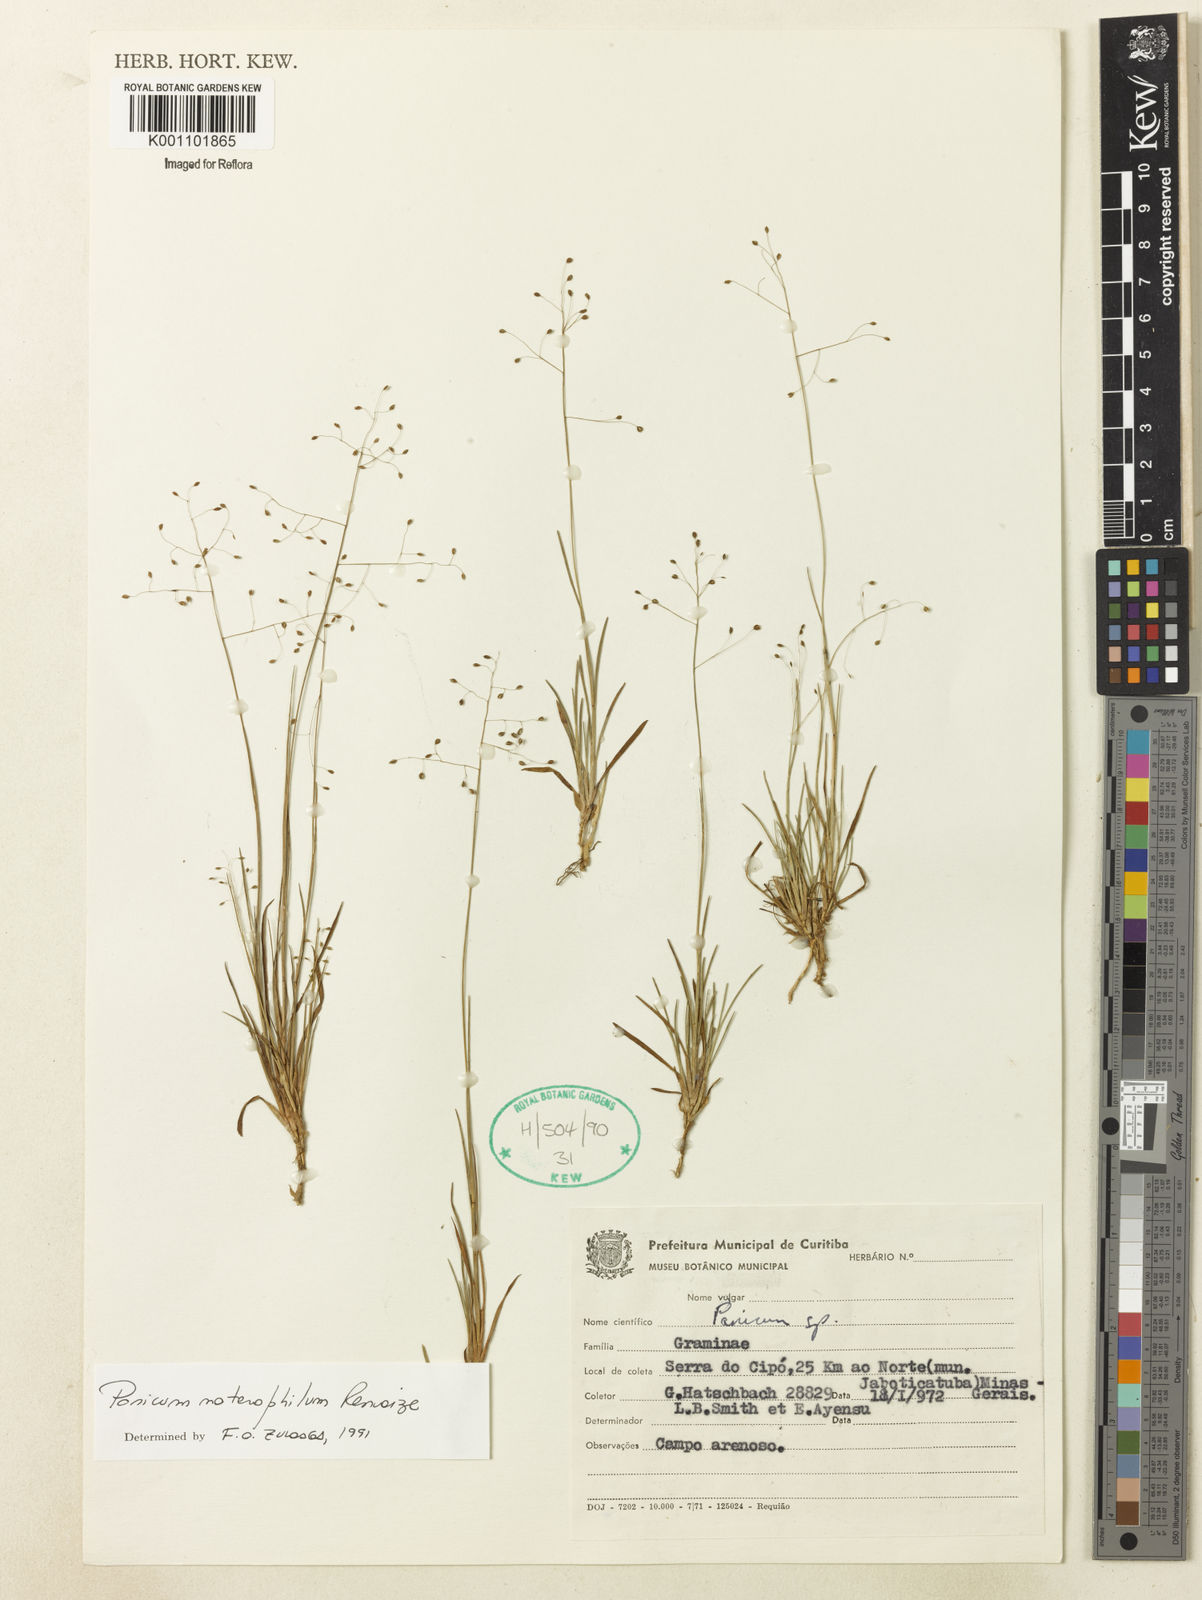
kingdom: Plantae
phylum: Tracheophyta
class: Liliopsida
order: Poales
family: Poaceae
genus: Trichanthecium
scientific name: Trichanthecium noterophilum
